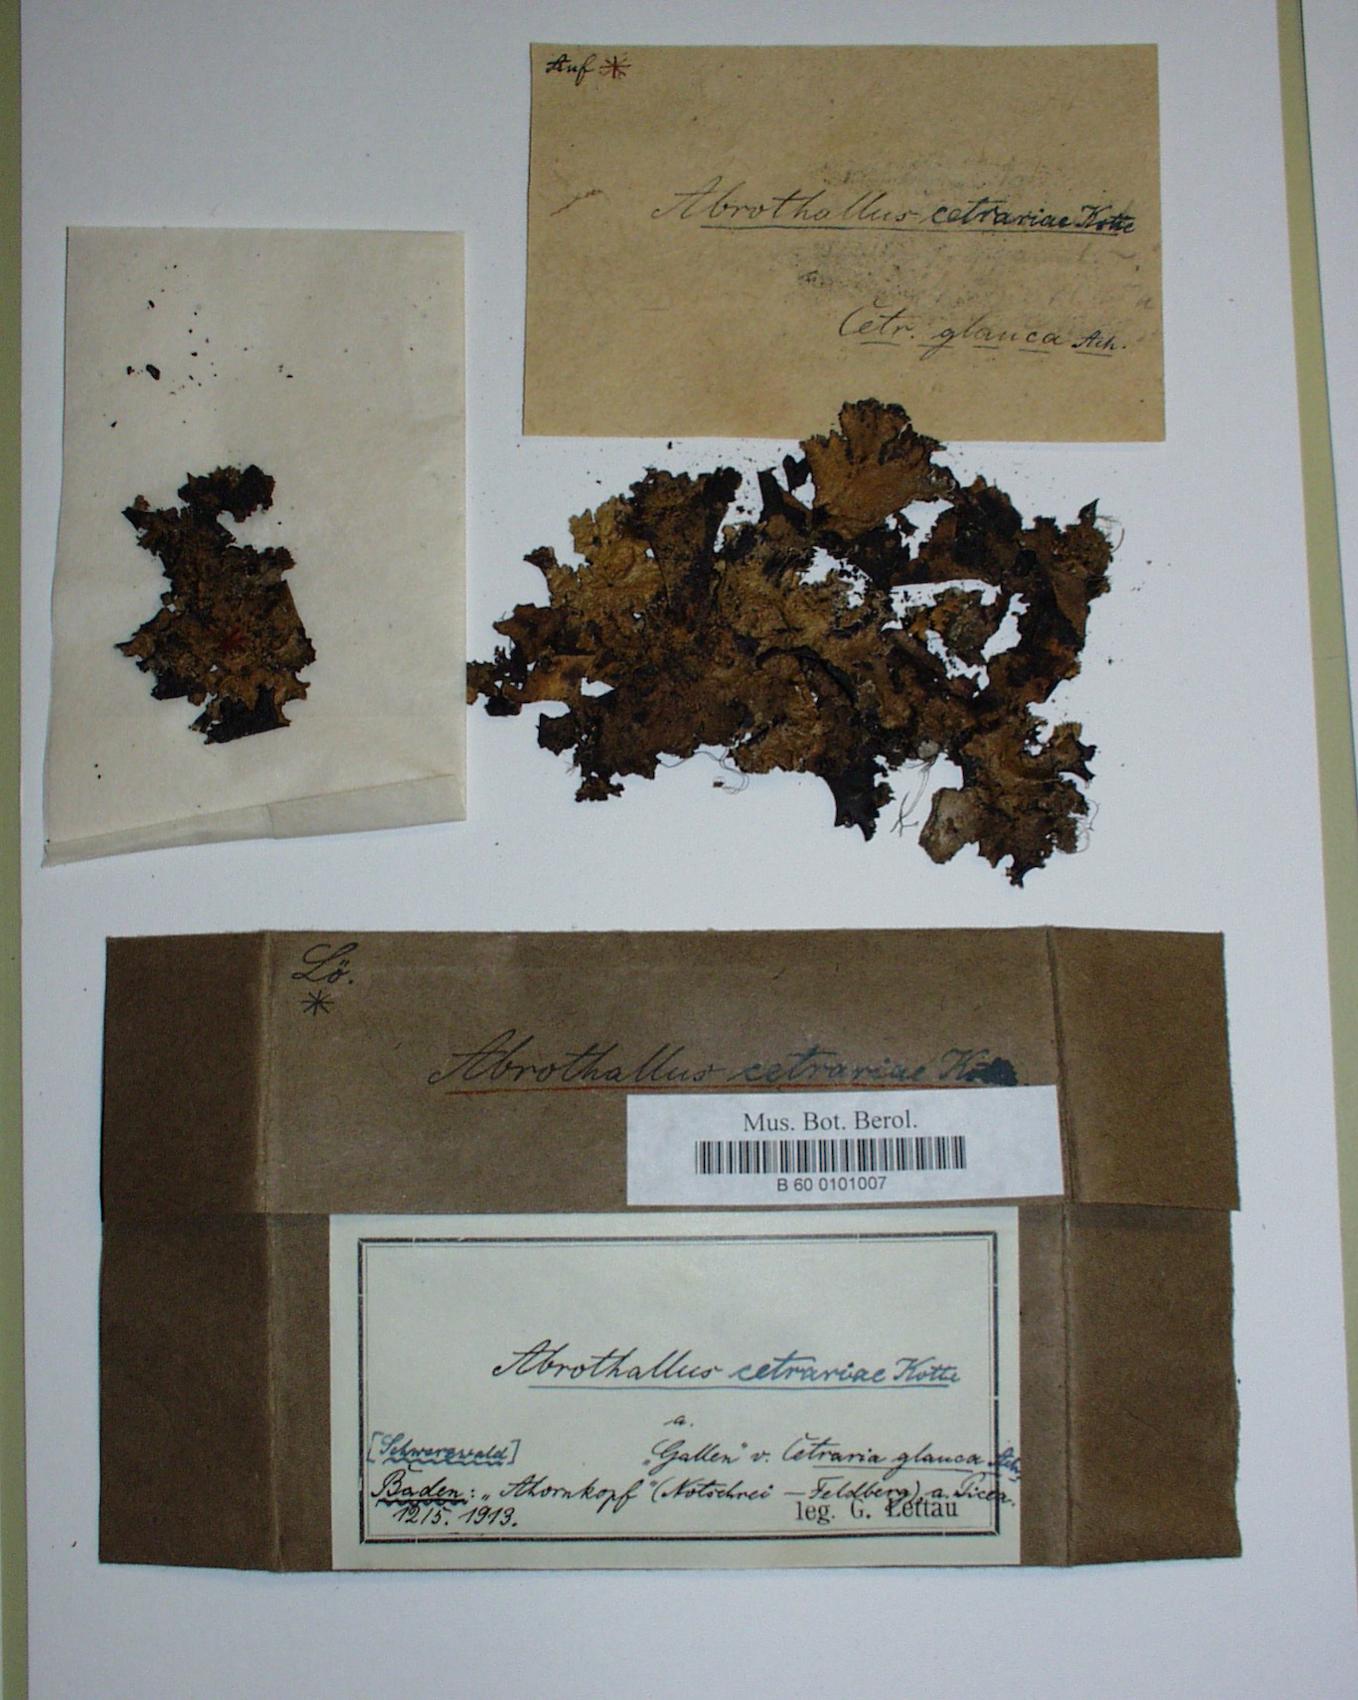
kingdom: Fungi
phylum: Ascomycota
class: Dothideomycetes
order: Abrothallales
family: Abrothallaceae
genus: Abrothallus
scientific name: Abrothallus cetrariae
